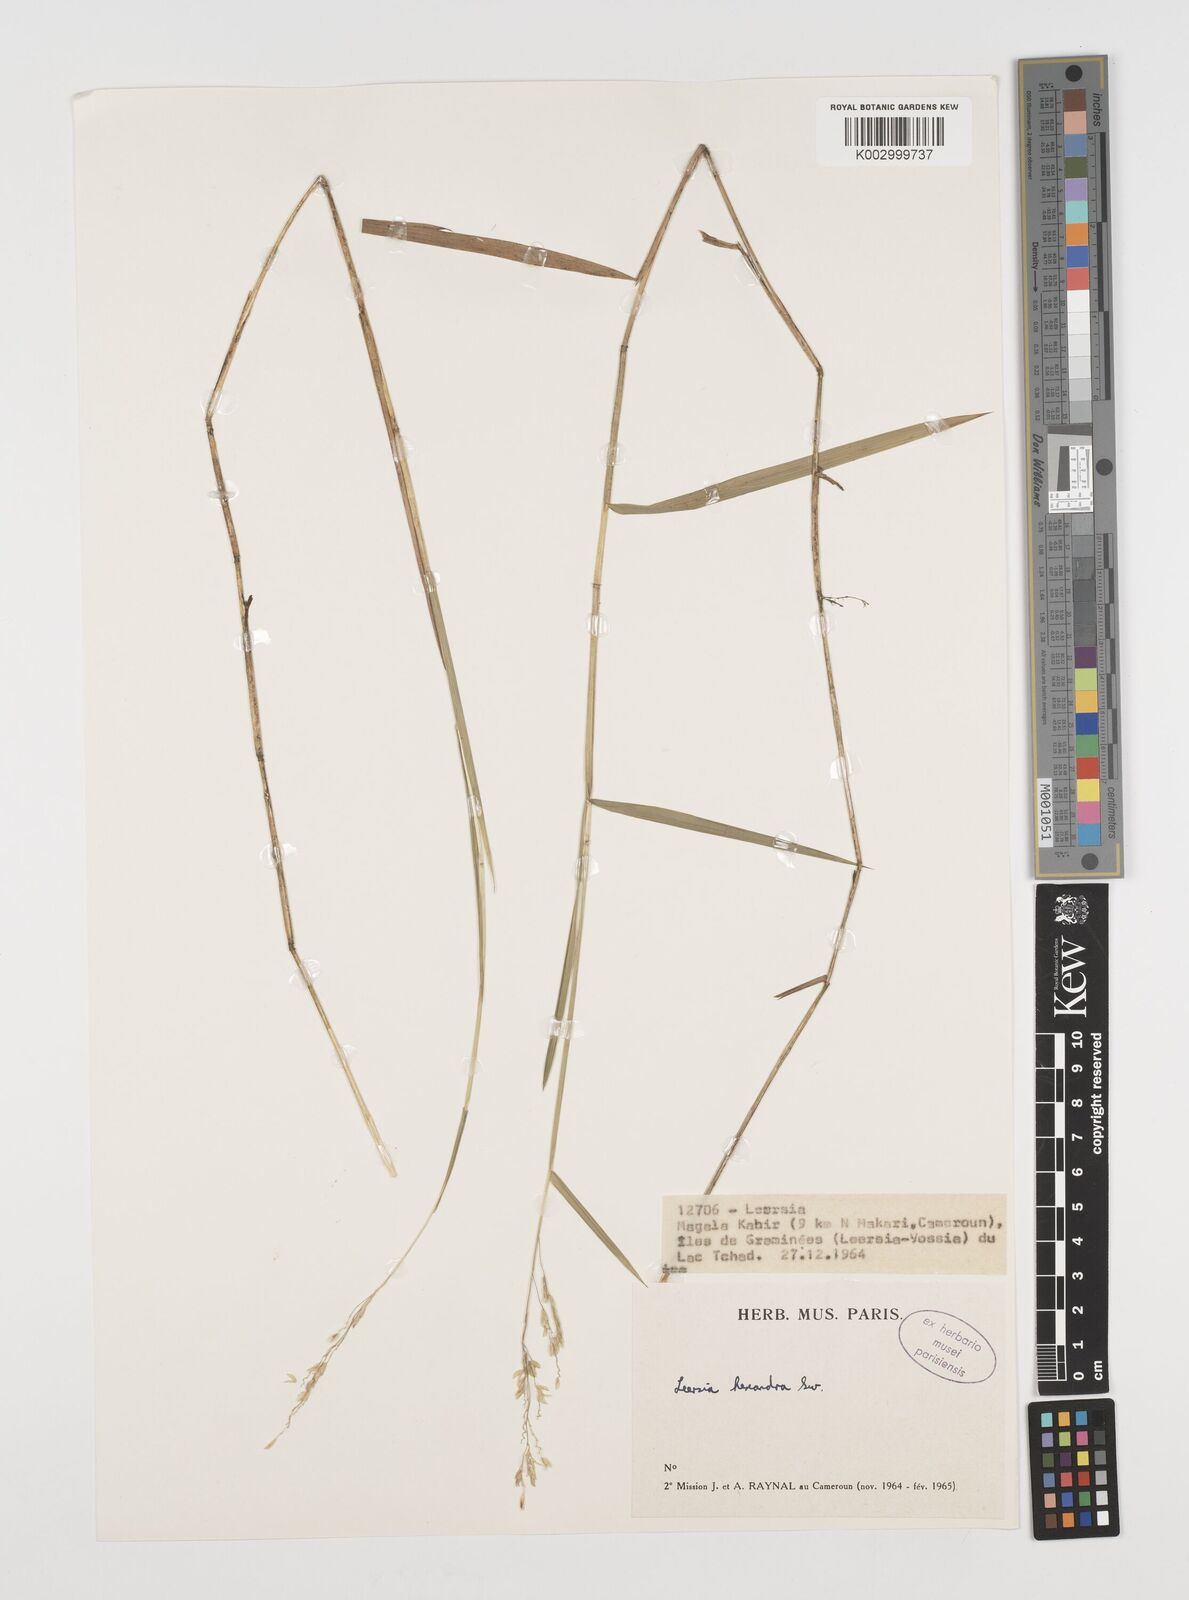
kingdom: Plantae
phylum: Tracheophyta
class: Liliopsida
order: Poales
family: Poaceae
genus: Leersia
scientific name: Leersia hexandra
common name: Southern cut grass
